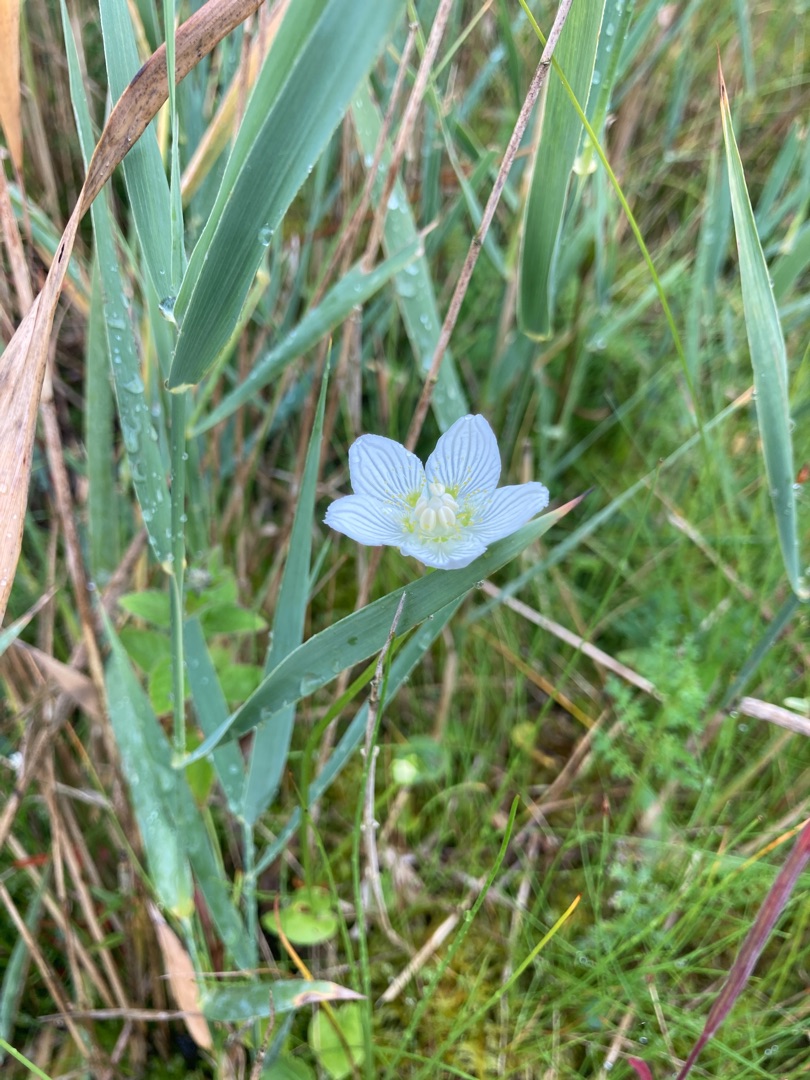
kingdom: Plantae
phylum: Tracheophyta
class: Magnoliopsida
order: Celastrales
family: Parnassiaceae
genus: Parnassia
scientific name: Parnassia palustris
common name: Leverurt
